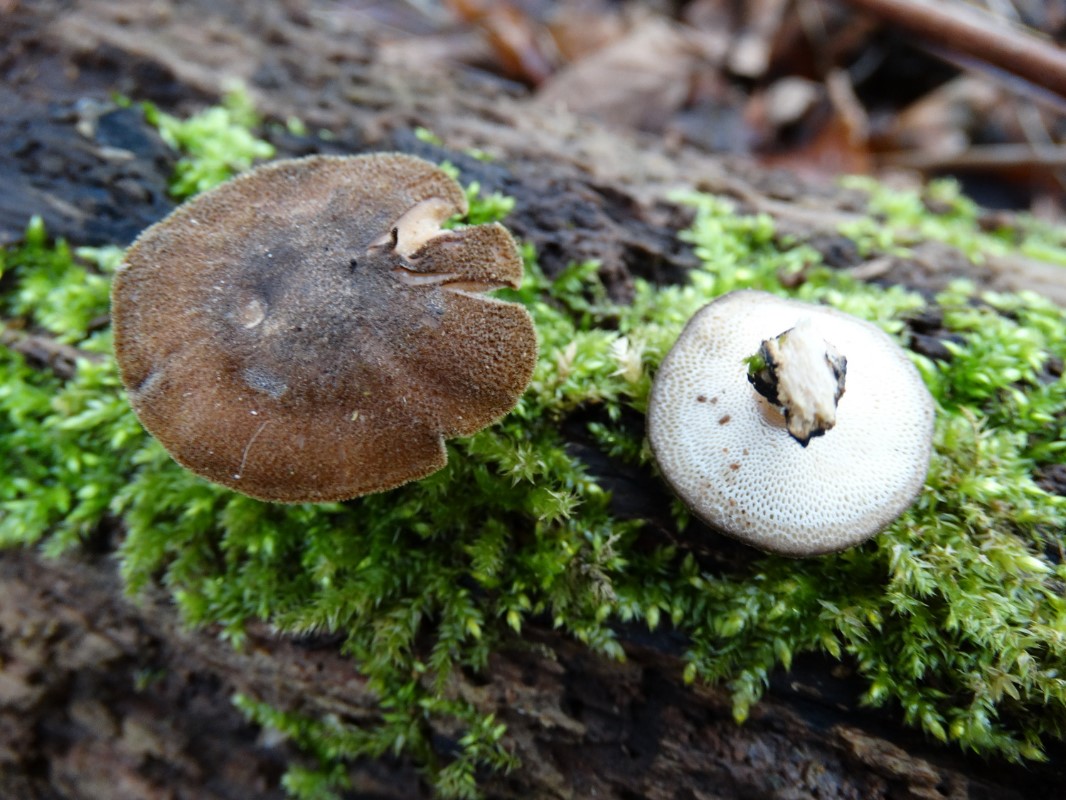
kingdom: Fungi
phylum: Basidiomycota
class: Agaricomycetes
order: Polyporales
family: Polyporaceae
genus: Lentinus
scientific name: Lentinus brumalis
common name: vinter-stilkporesvamp
